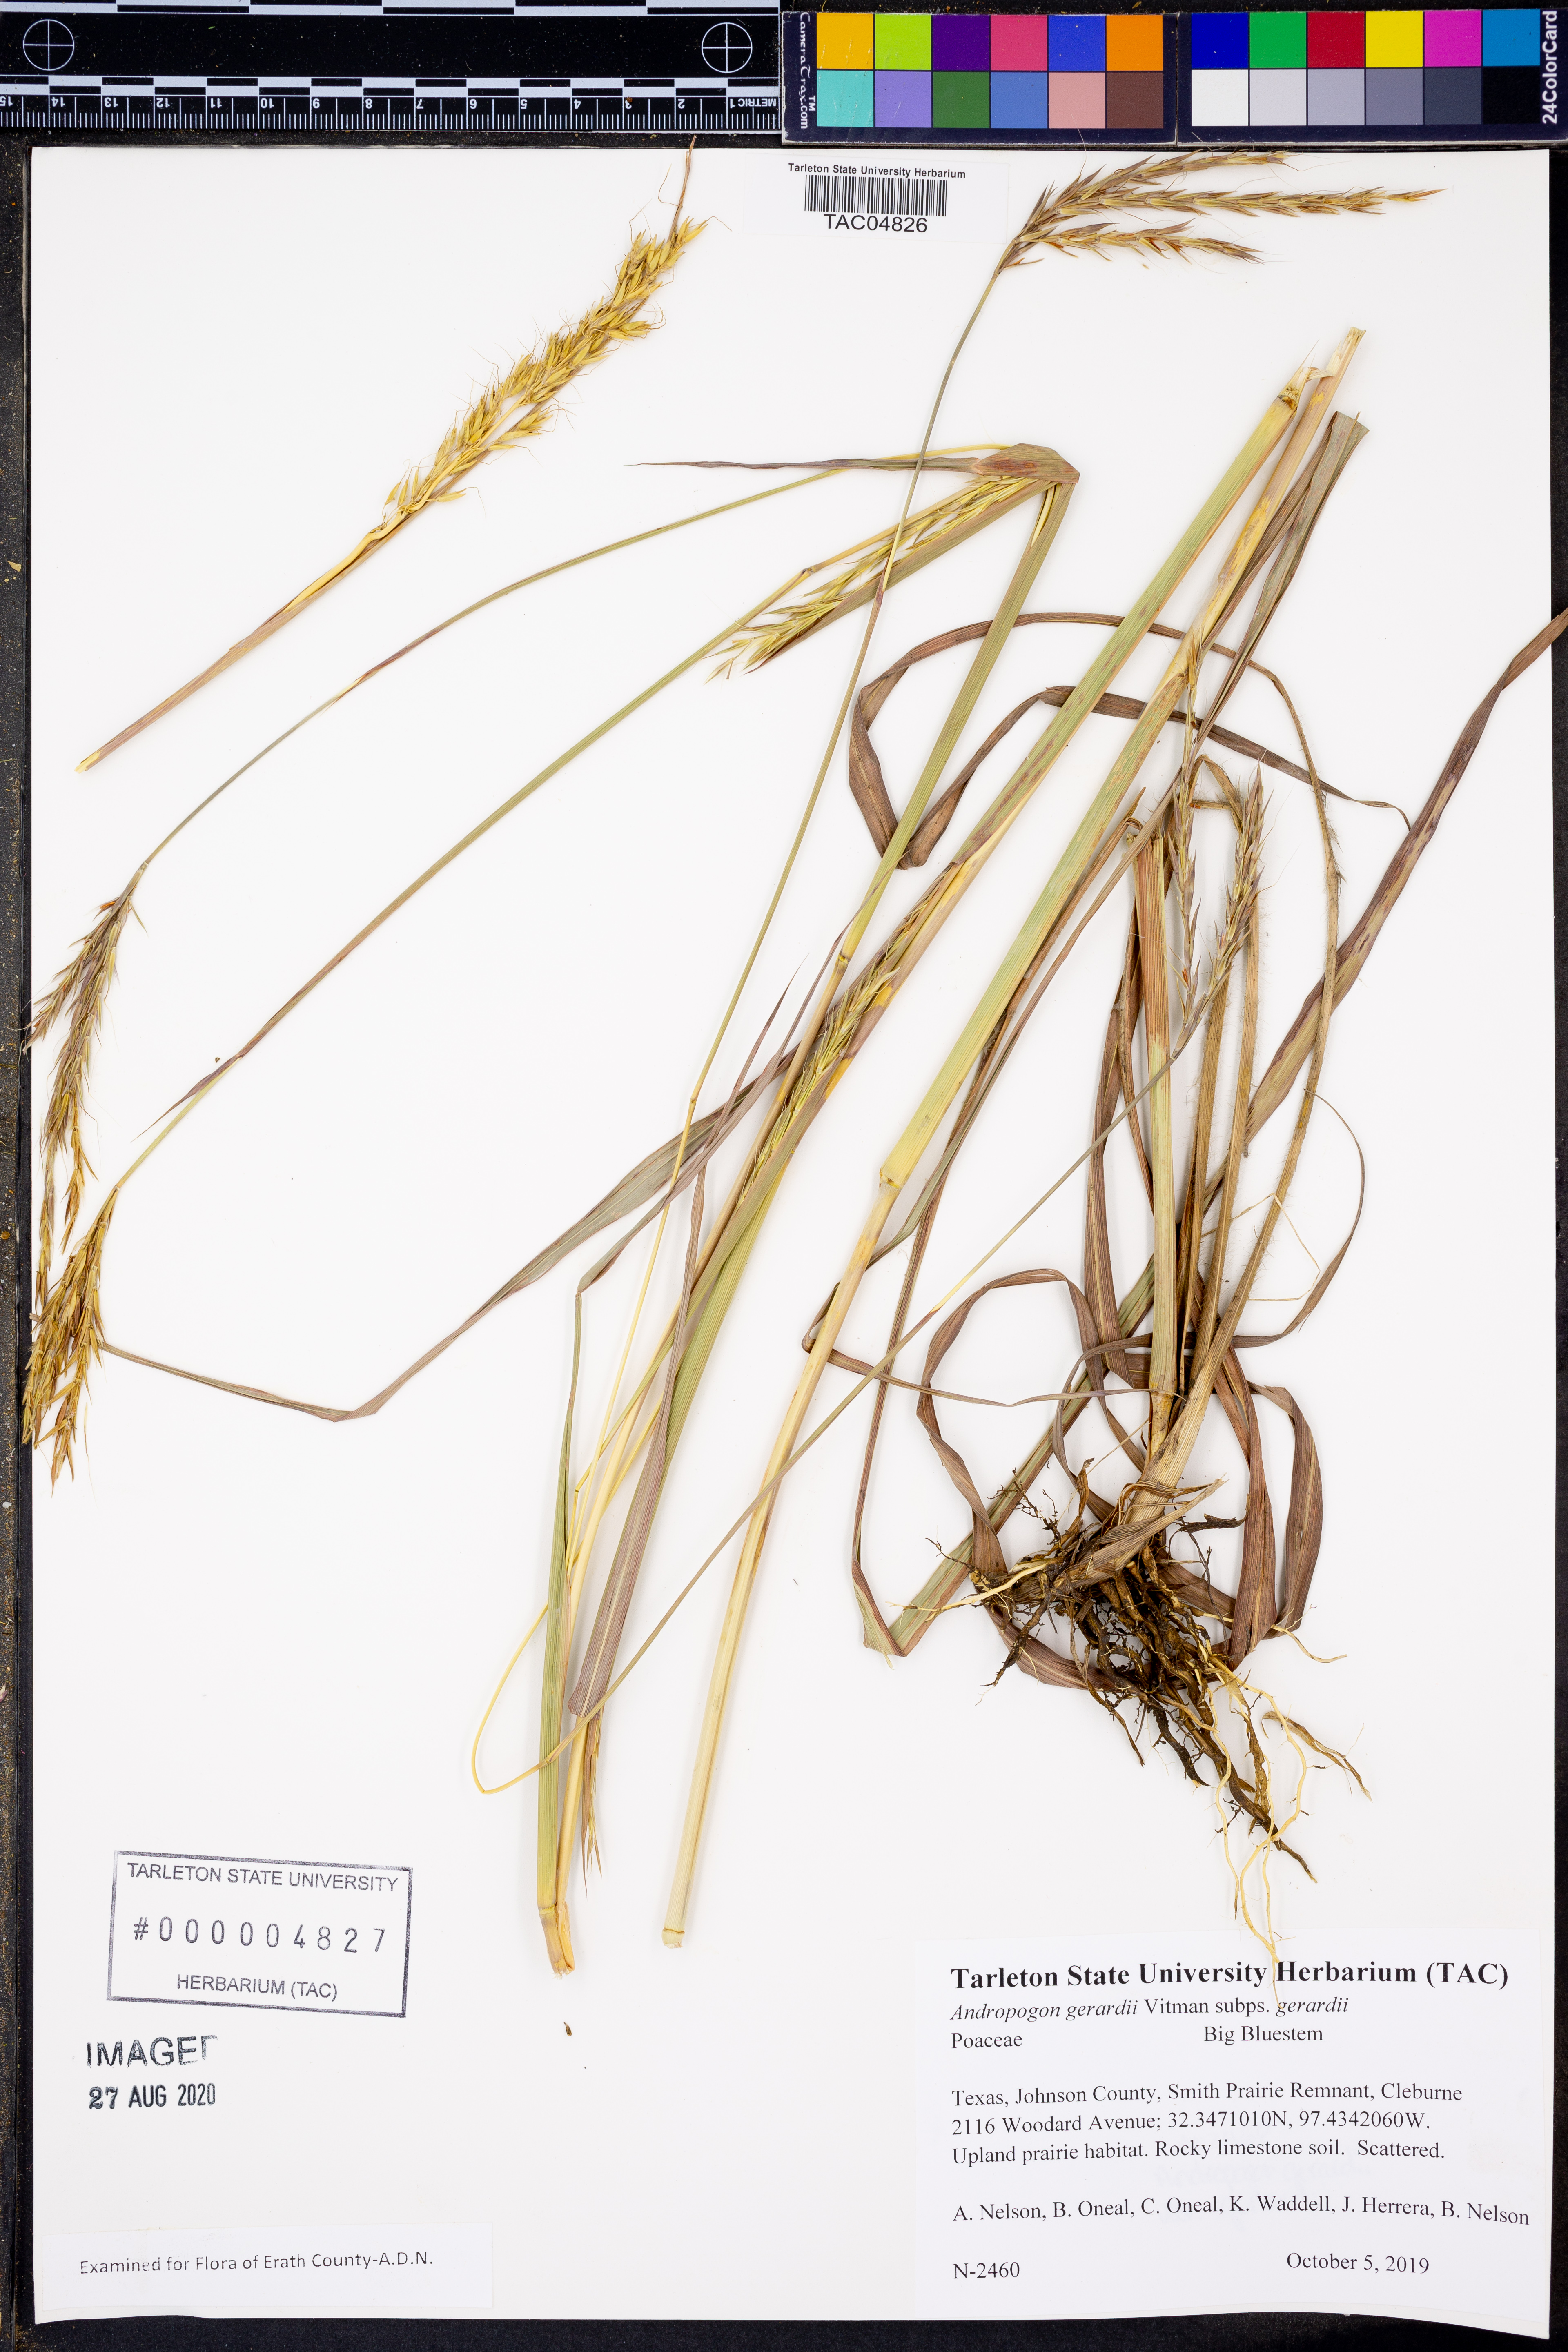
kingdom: Plantae
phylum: Tracheophyta
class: Liliopsida
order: Poales
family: Poaceae
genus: Andropogon
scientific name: Andropogon gerardi
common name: Big bluestem
